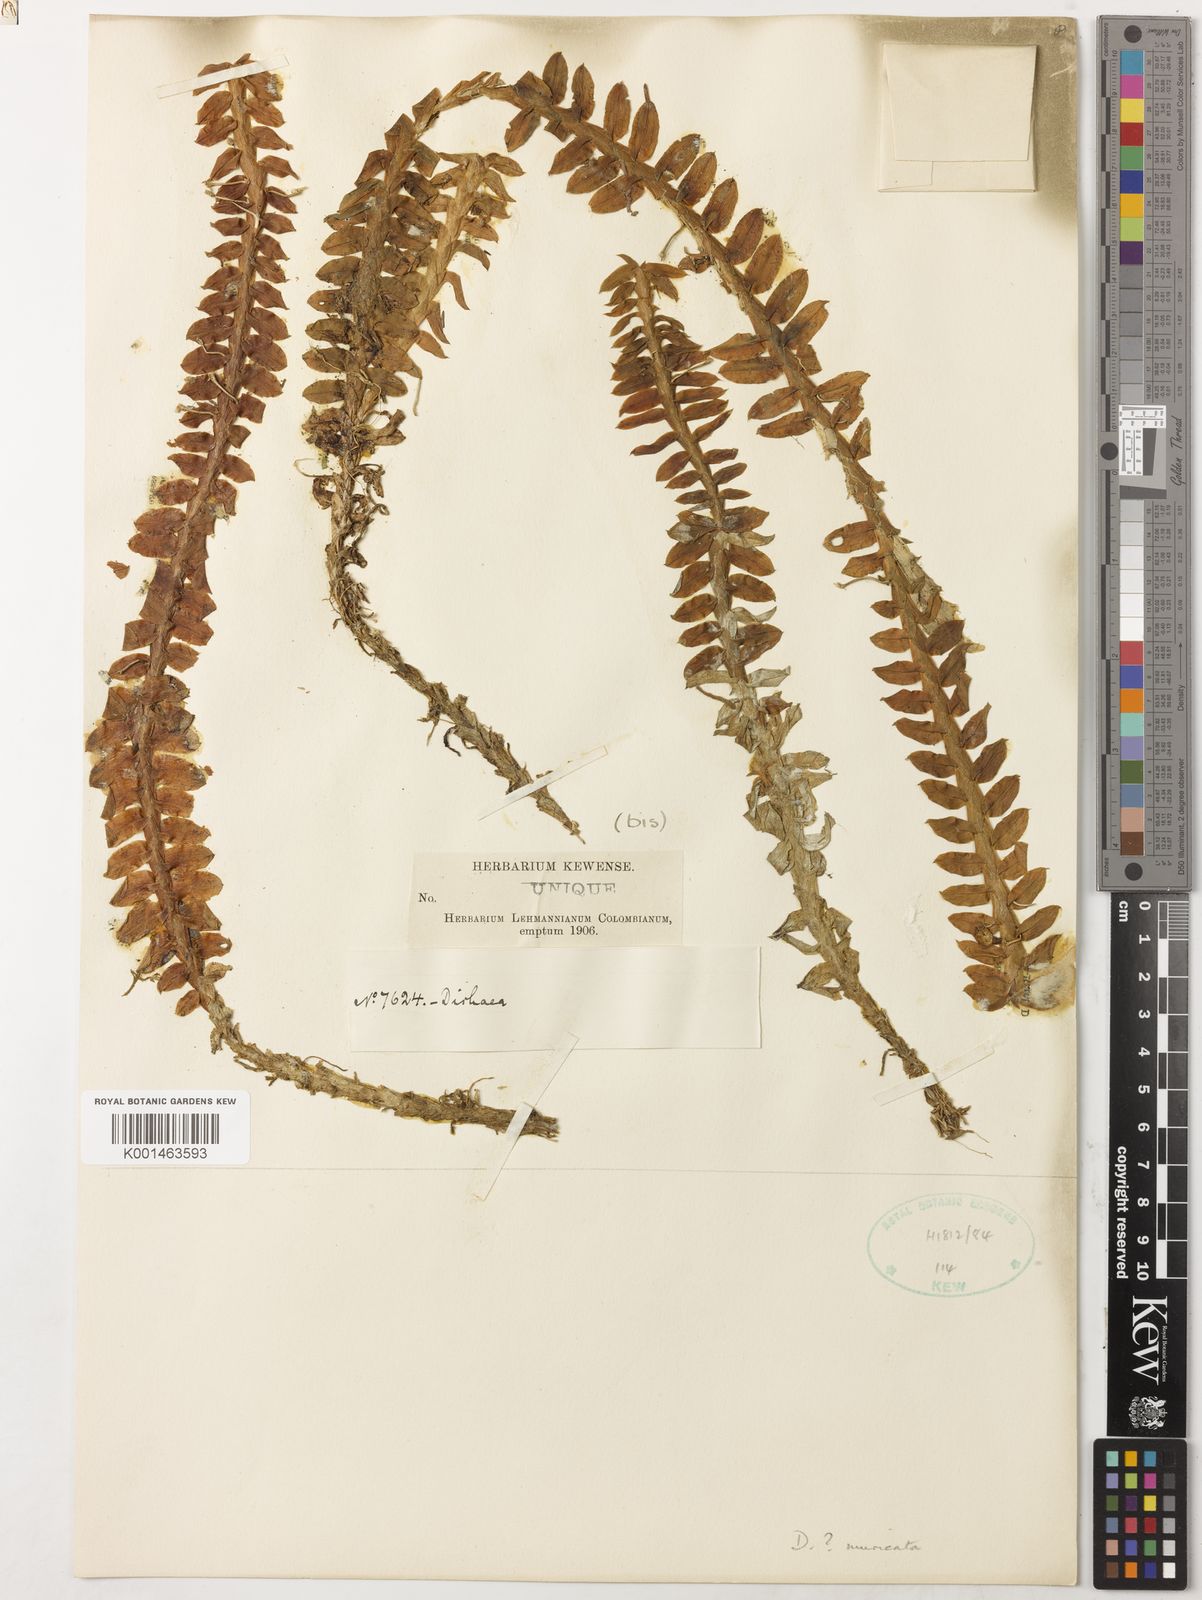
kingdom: Plantae
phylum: Tracheophyta
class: Liliopsida
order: Asparagales
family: Orchidaceae
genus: Dichaea
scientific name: Dichaea morrisii
